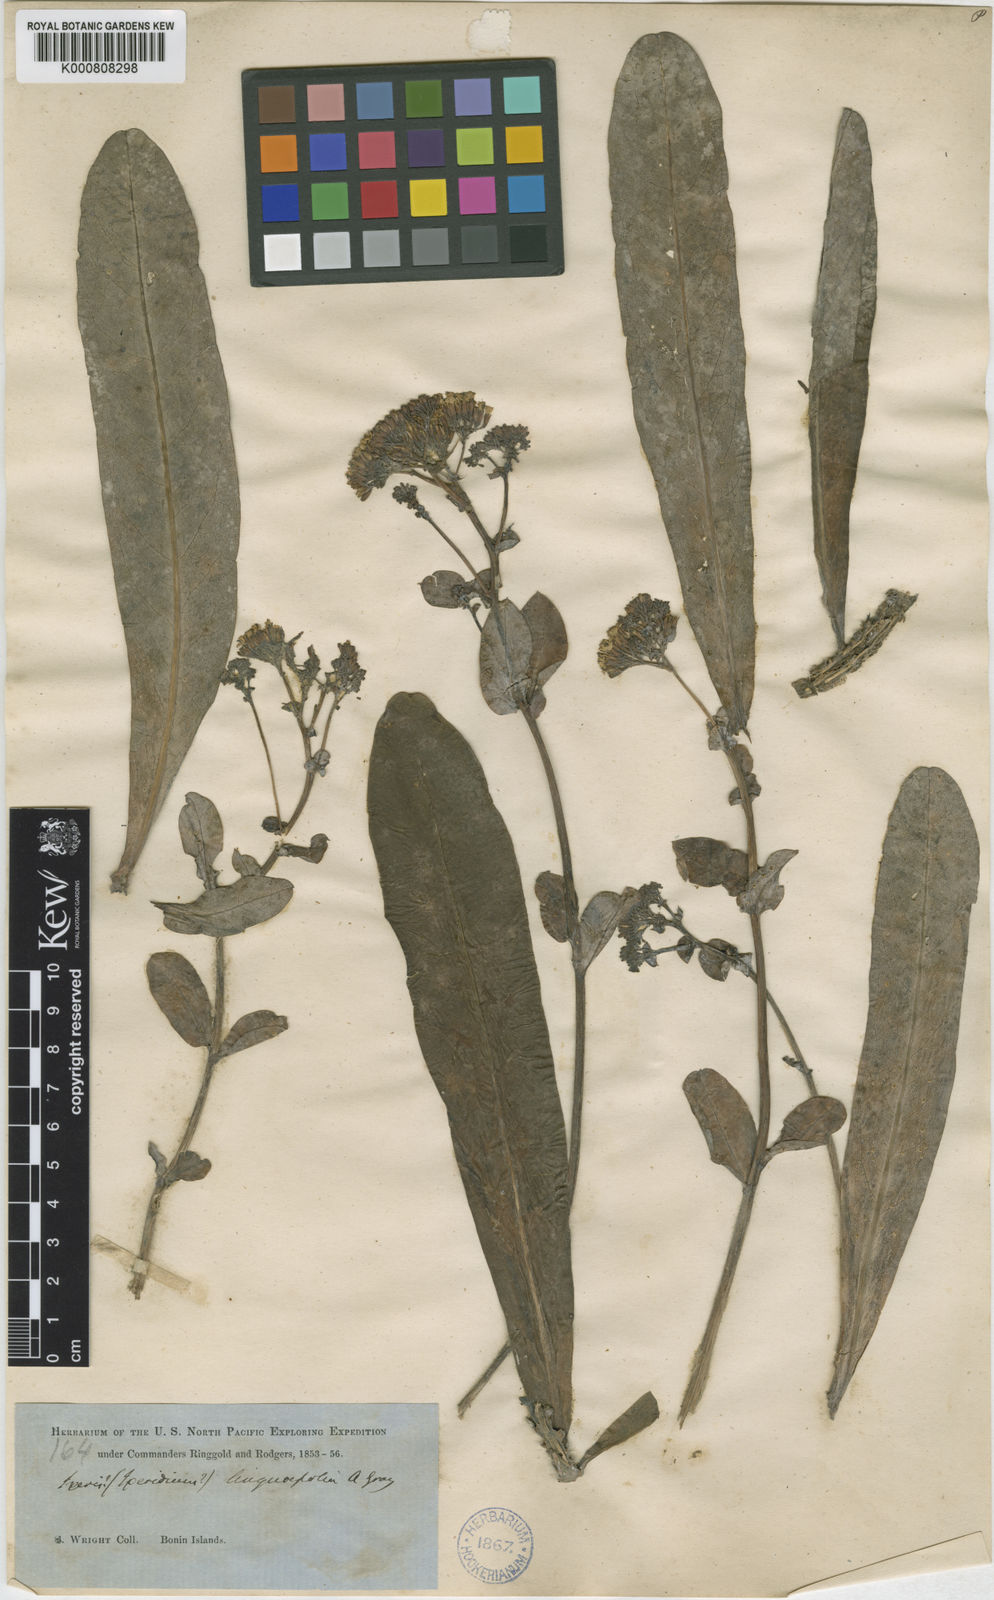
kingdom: Plantae
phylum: Tracheophyta
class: Magnoliopsida
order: Asterales
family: Asteraceae
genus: Crepidiastrum
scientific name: Crepidiastrum linguifolium
